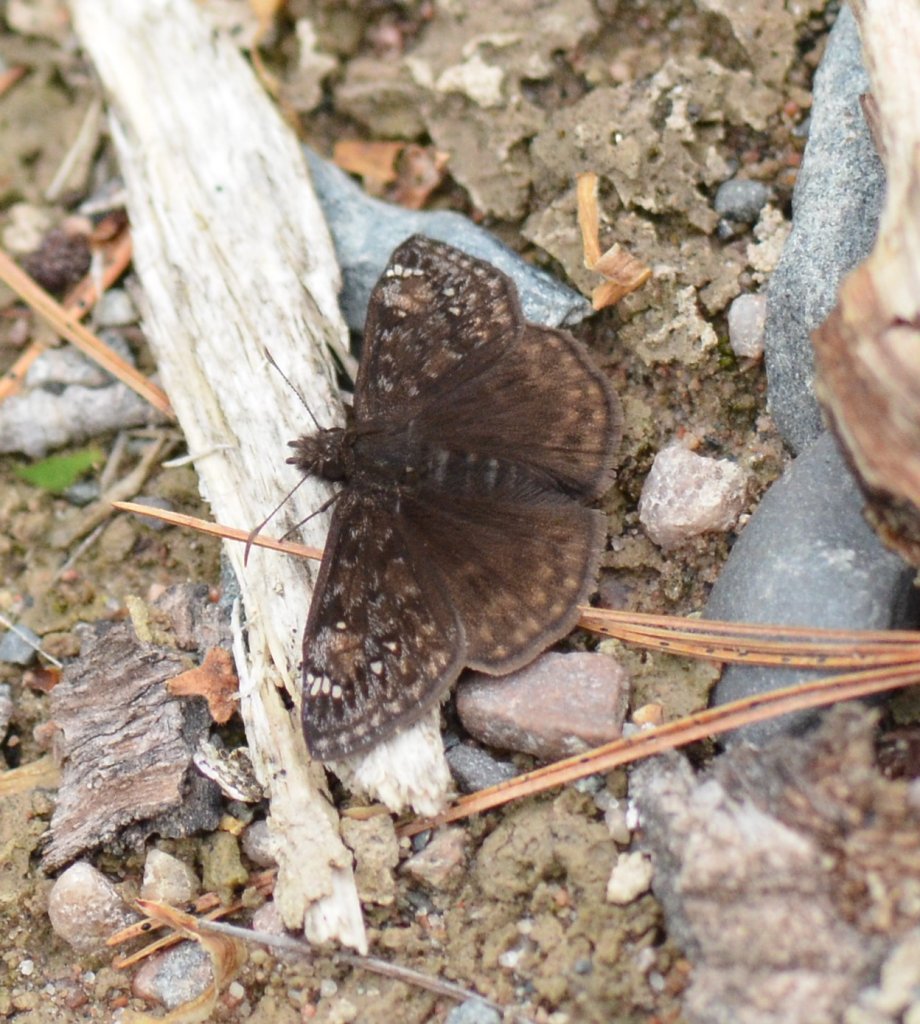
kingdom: Animalia
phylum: Arthropoda
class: Insecta
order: Lepidoptera
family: Hesperiidae
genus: Gesta
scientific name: Gesta
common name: Columbine Duskywing
